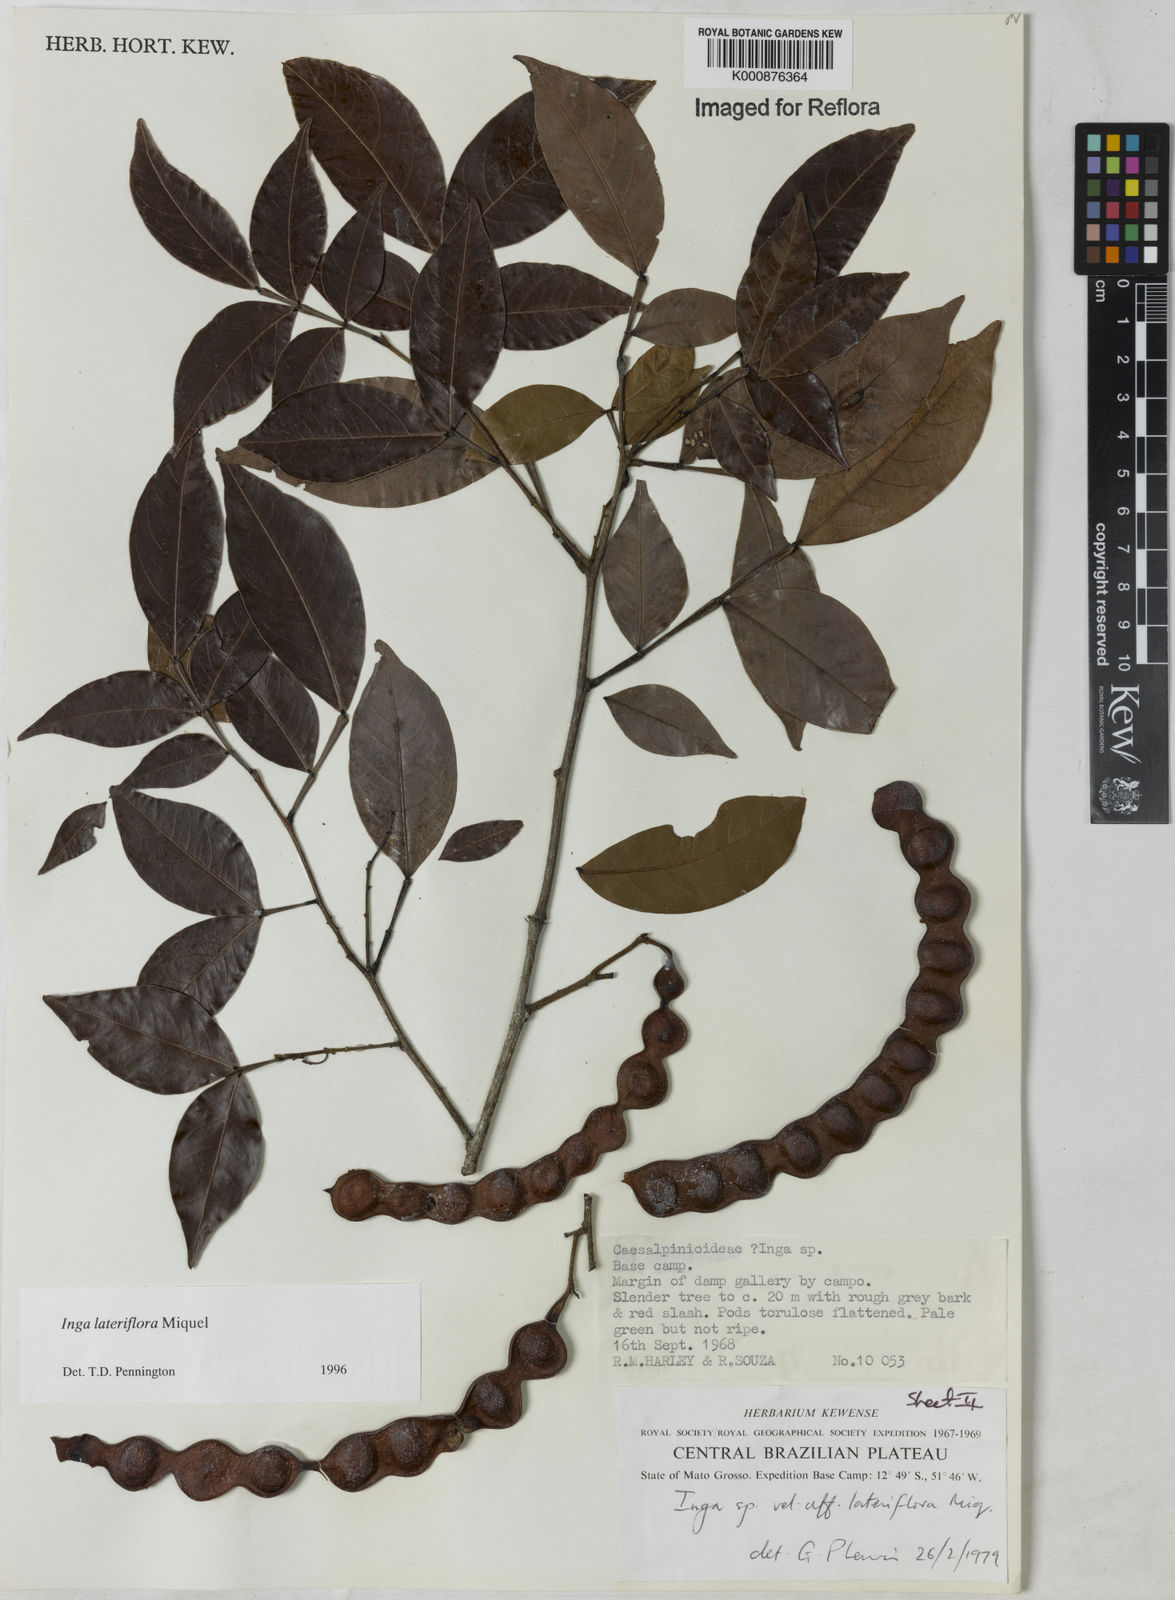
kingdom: Plantae
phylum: Tracheophyta
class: Magnoliopsida
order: Fabales
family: Fabaceae
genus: Inga
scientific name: Inga lateriflora
